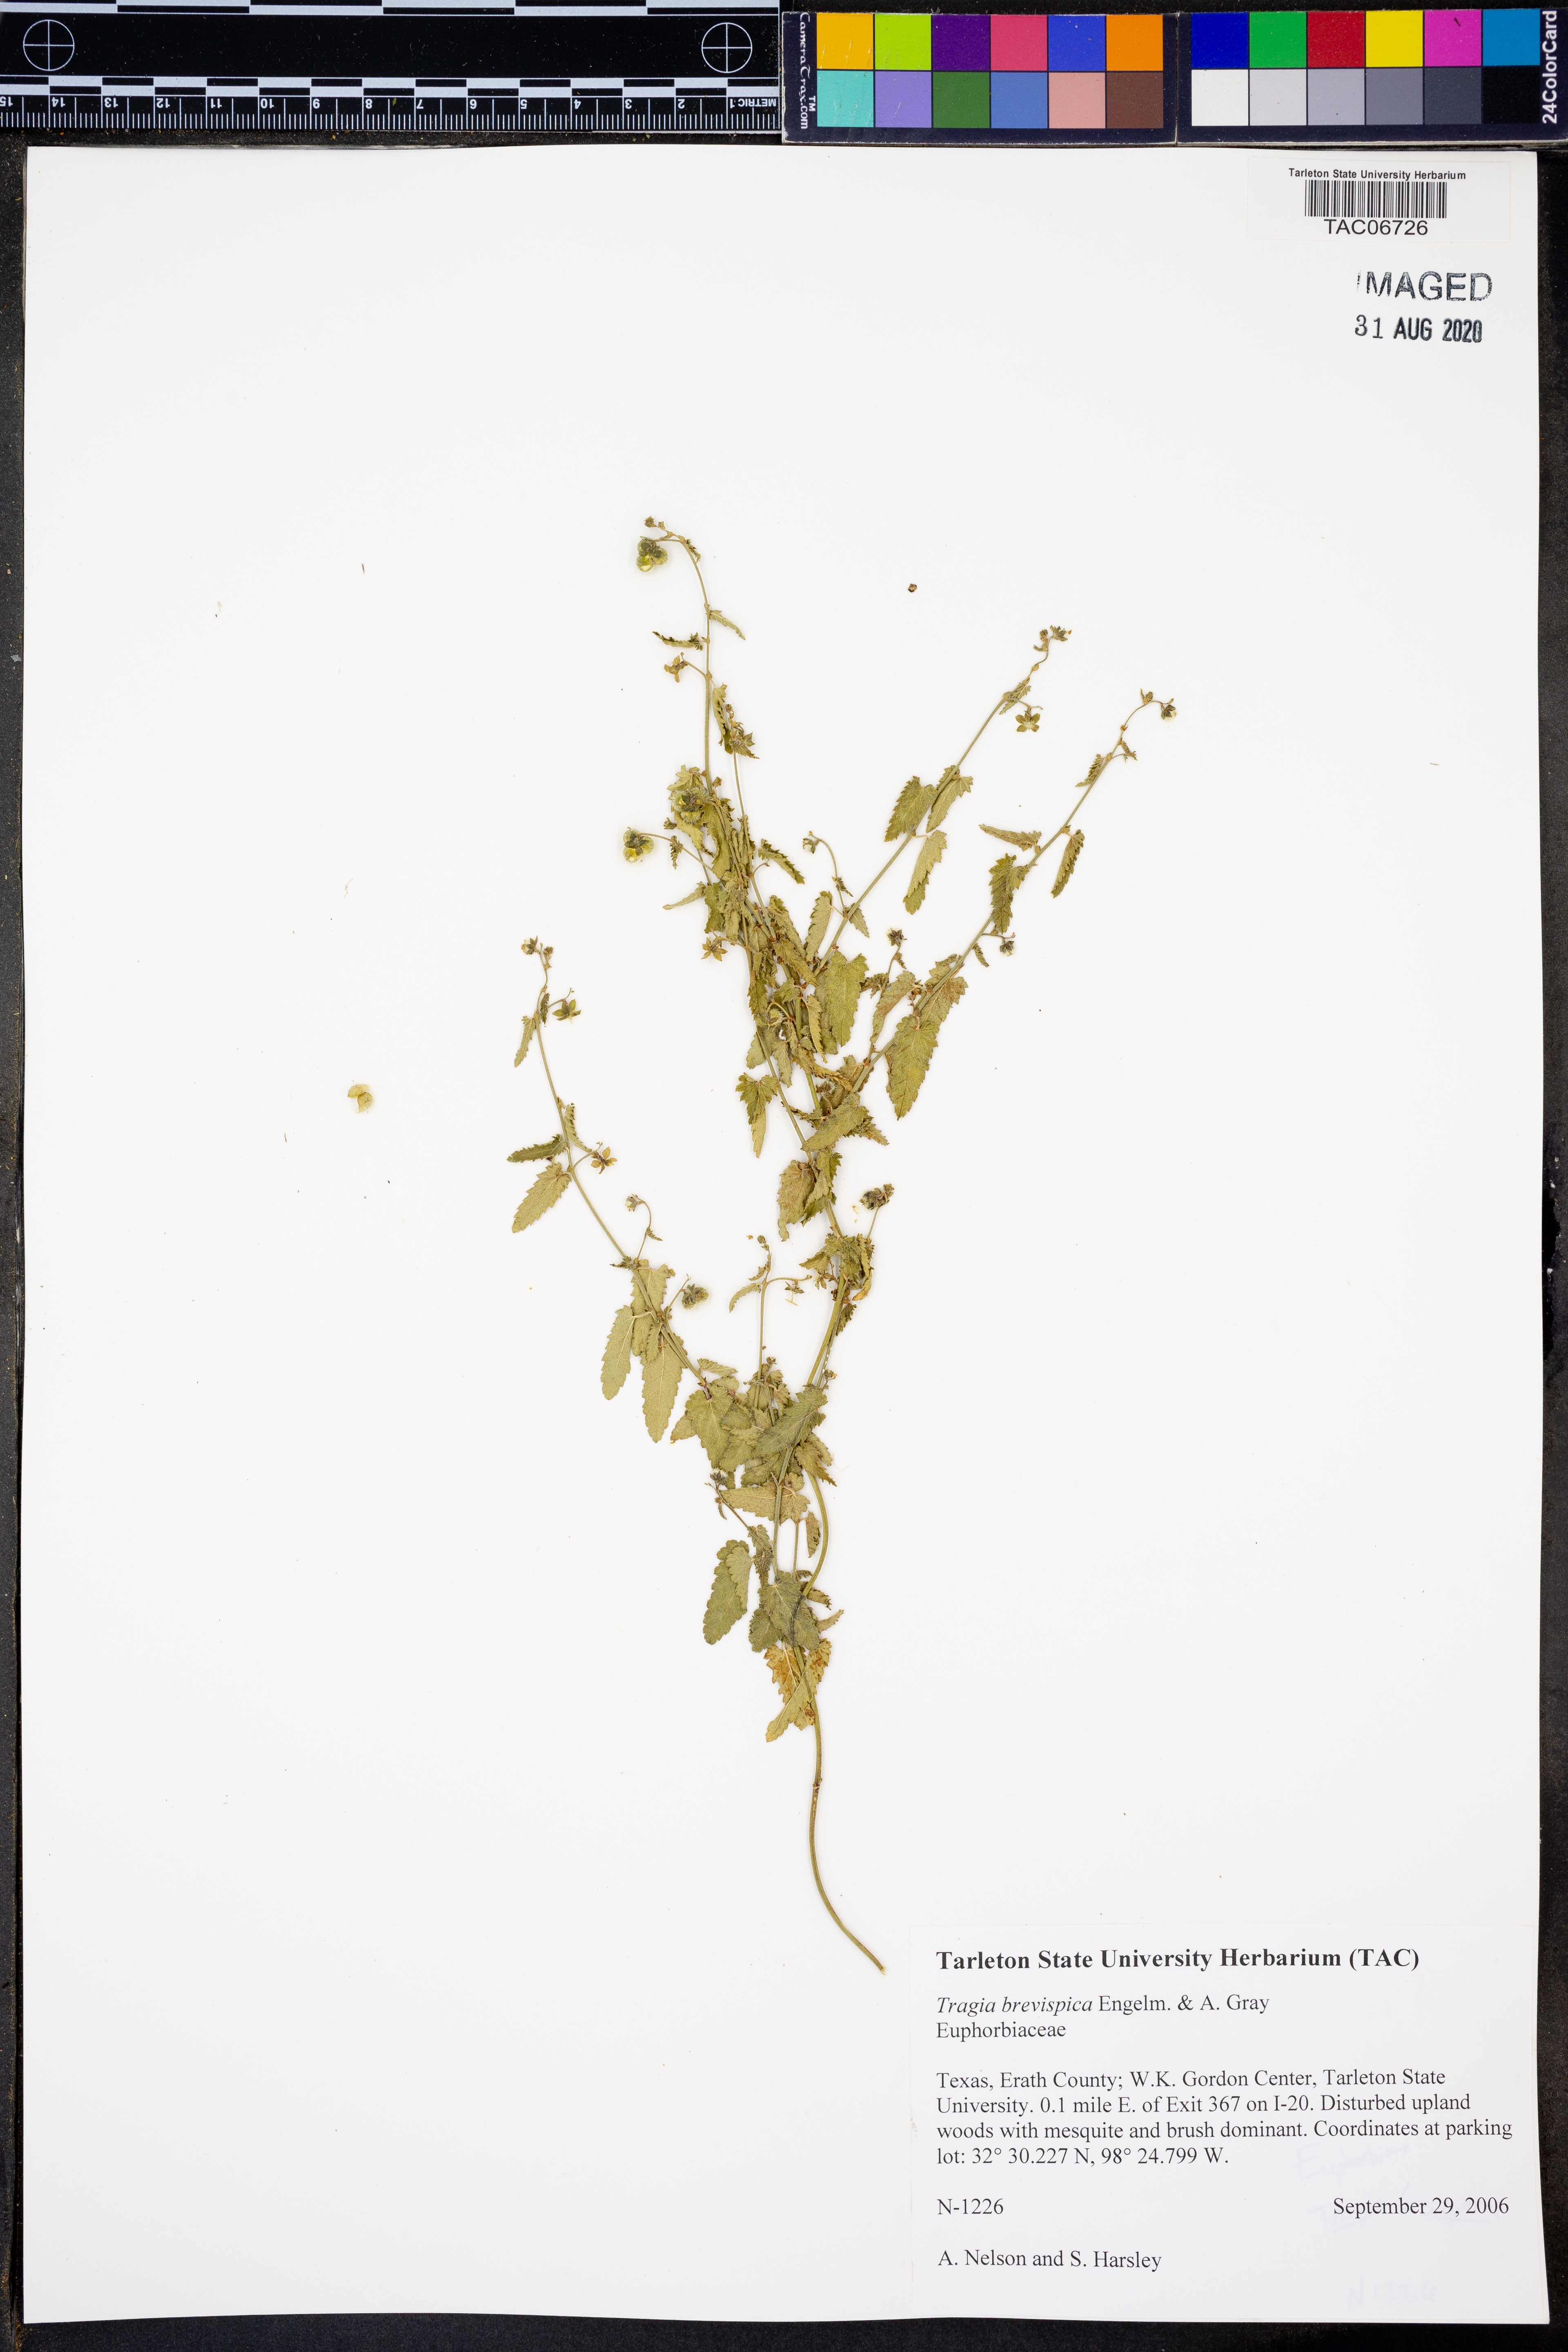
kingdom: Plantae
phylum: Tracheophyta
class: Magnoliopsida
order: Malpighiales
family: Euphorbiaceae
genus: Tragia
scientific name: Tragia brevispica
